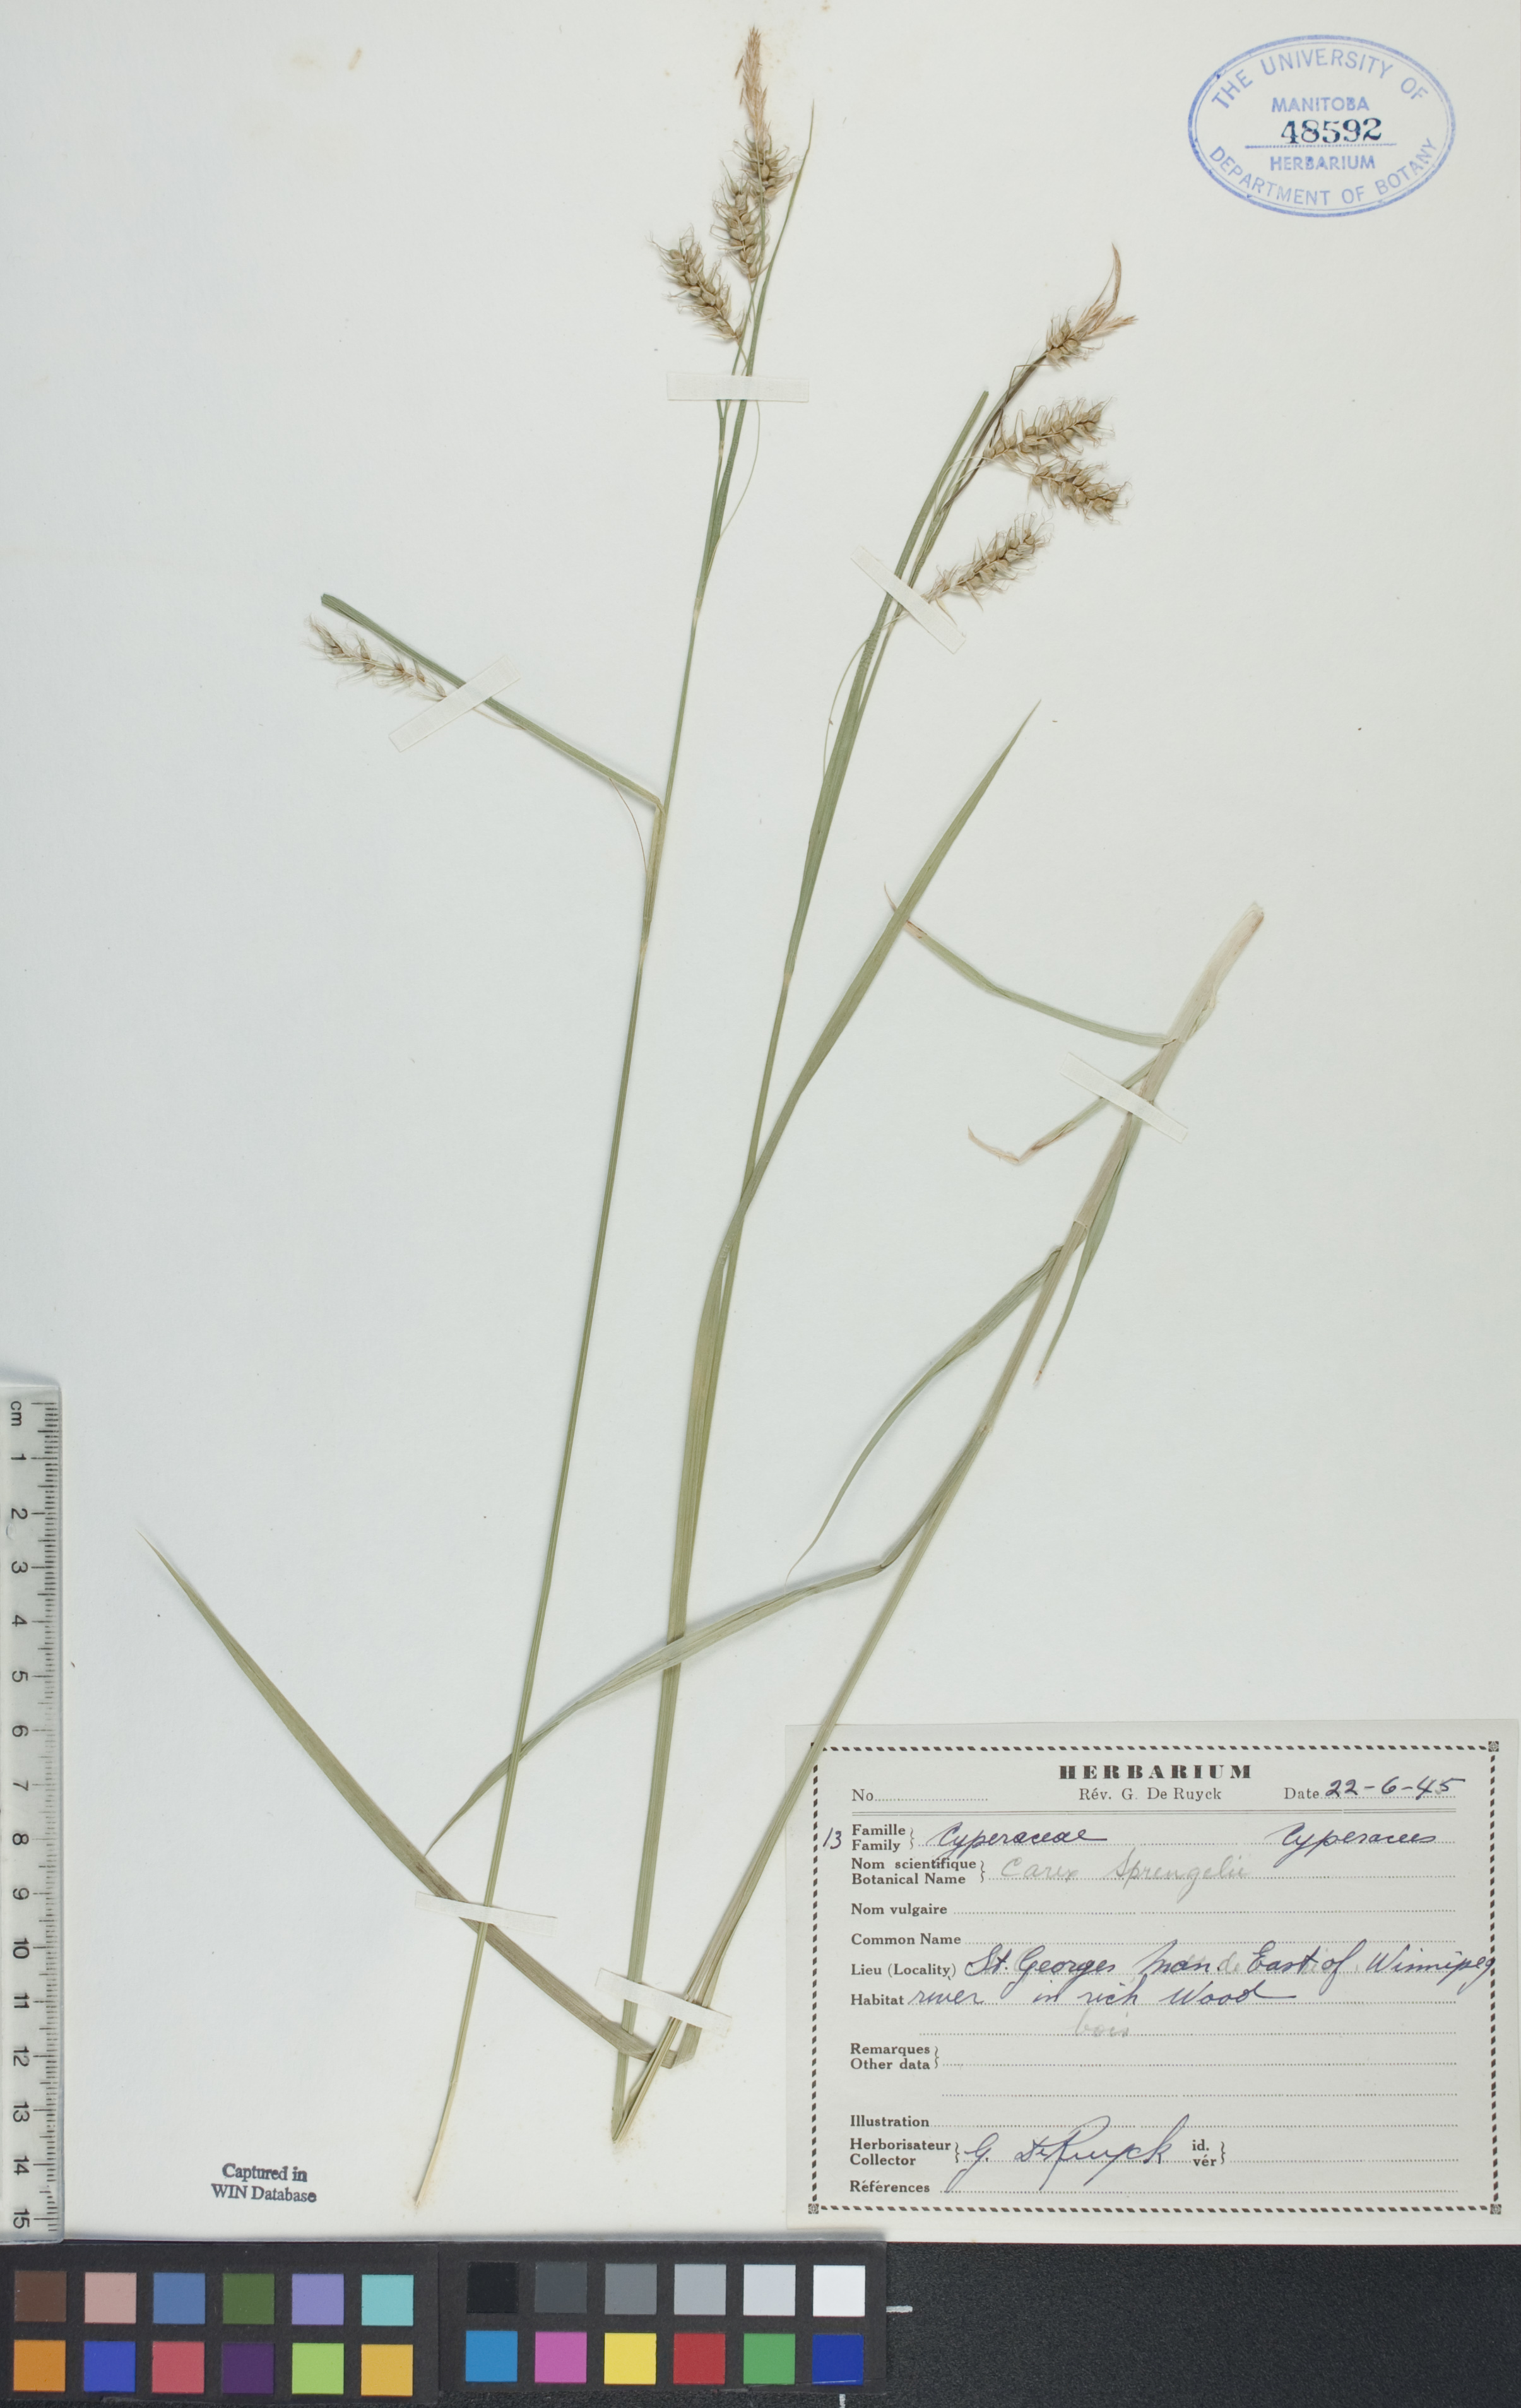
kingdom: Plantae
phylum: Tracheophyta
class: Liliopsida
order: Poales
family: Cyperaceae
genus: Carex
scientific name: Carex sprengelii
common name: Long-beaked sedge
